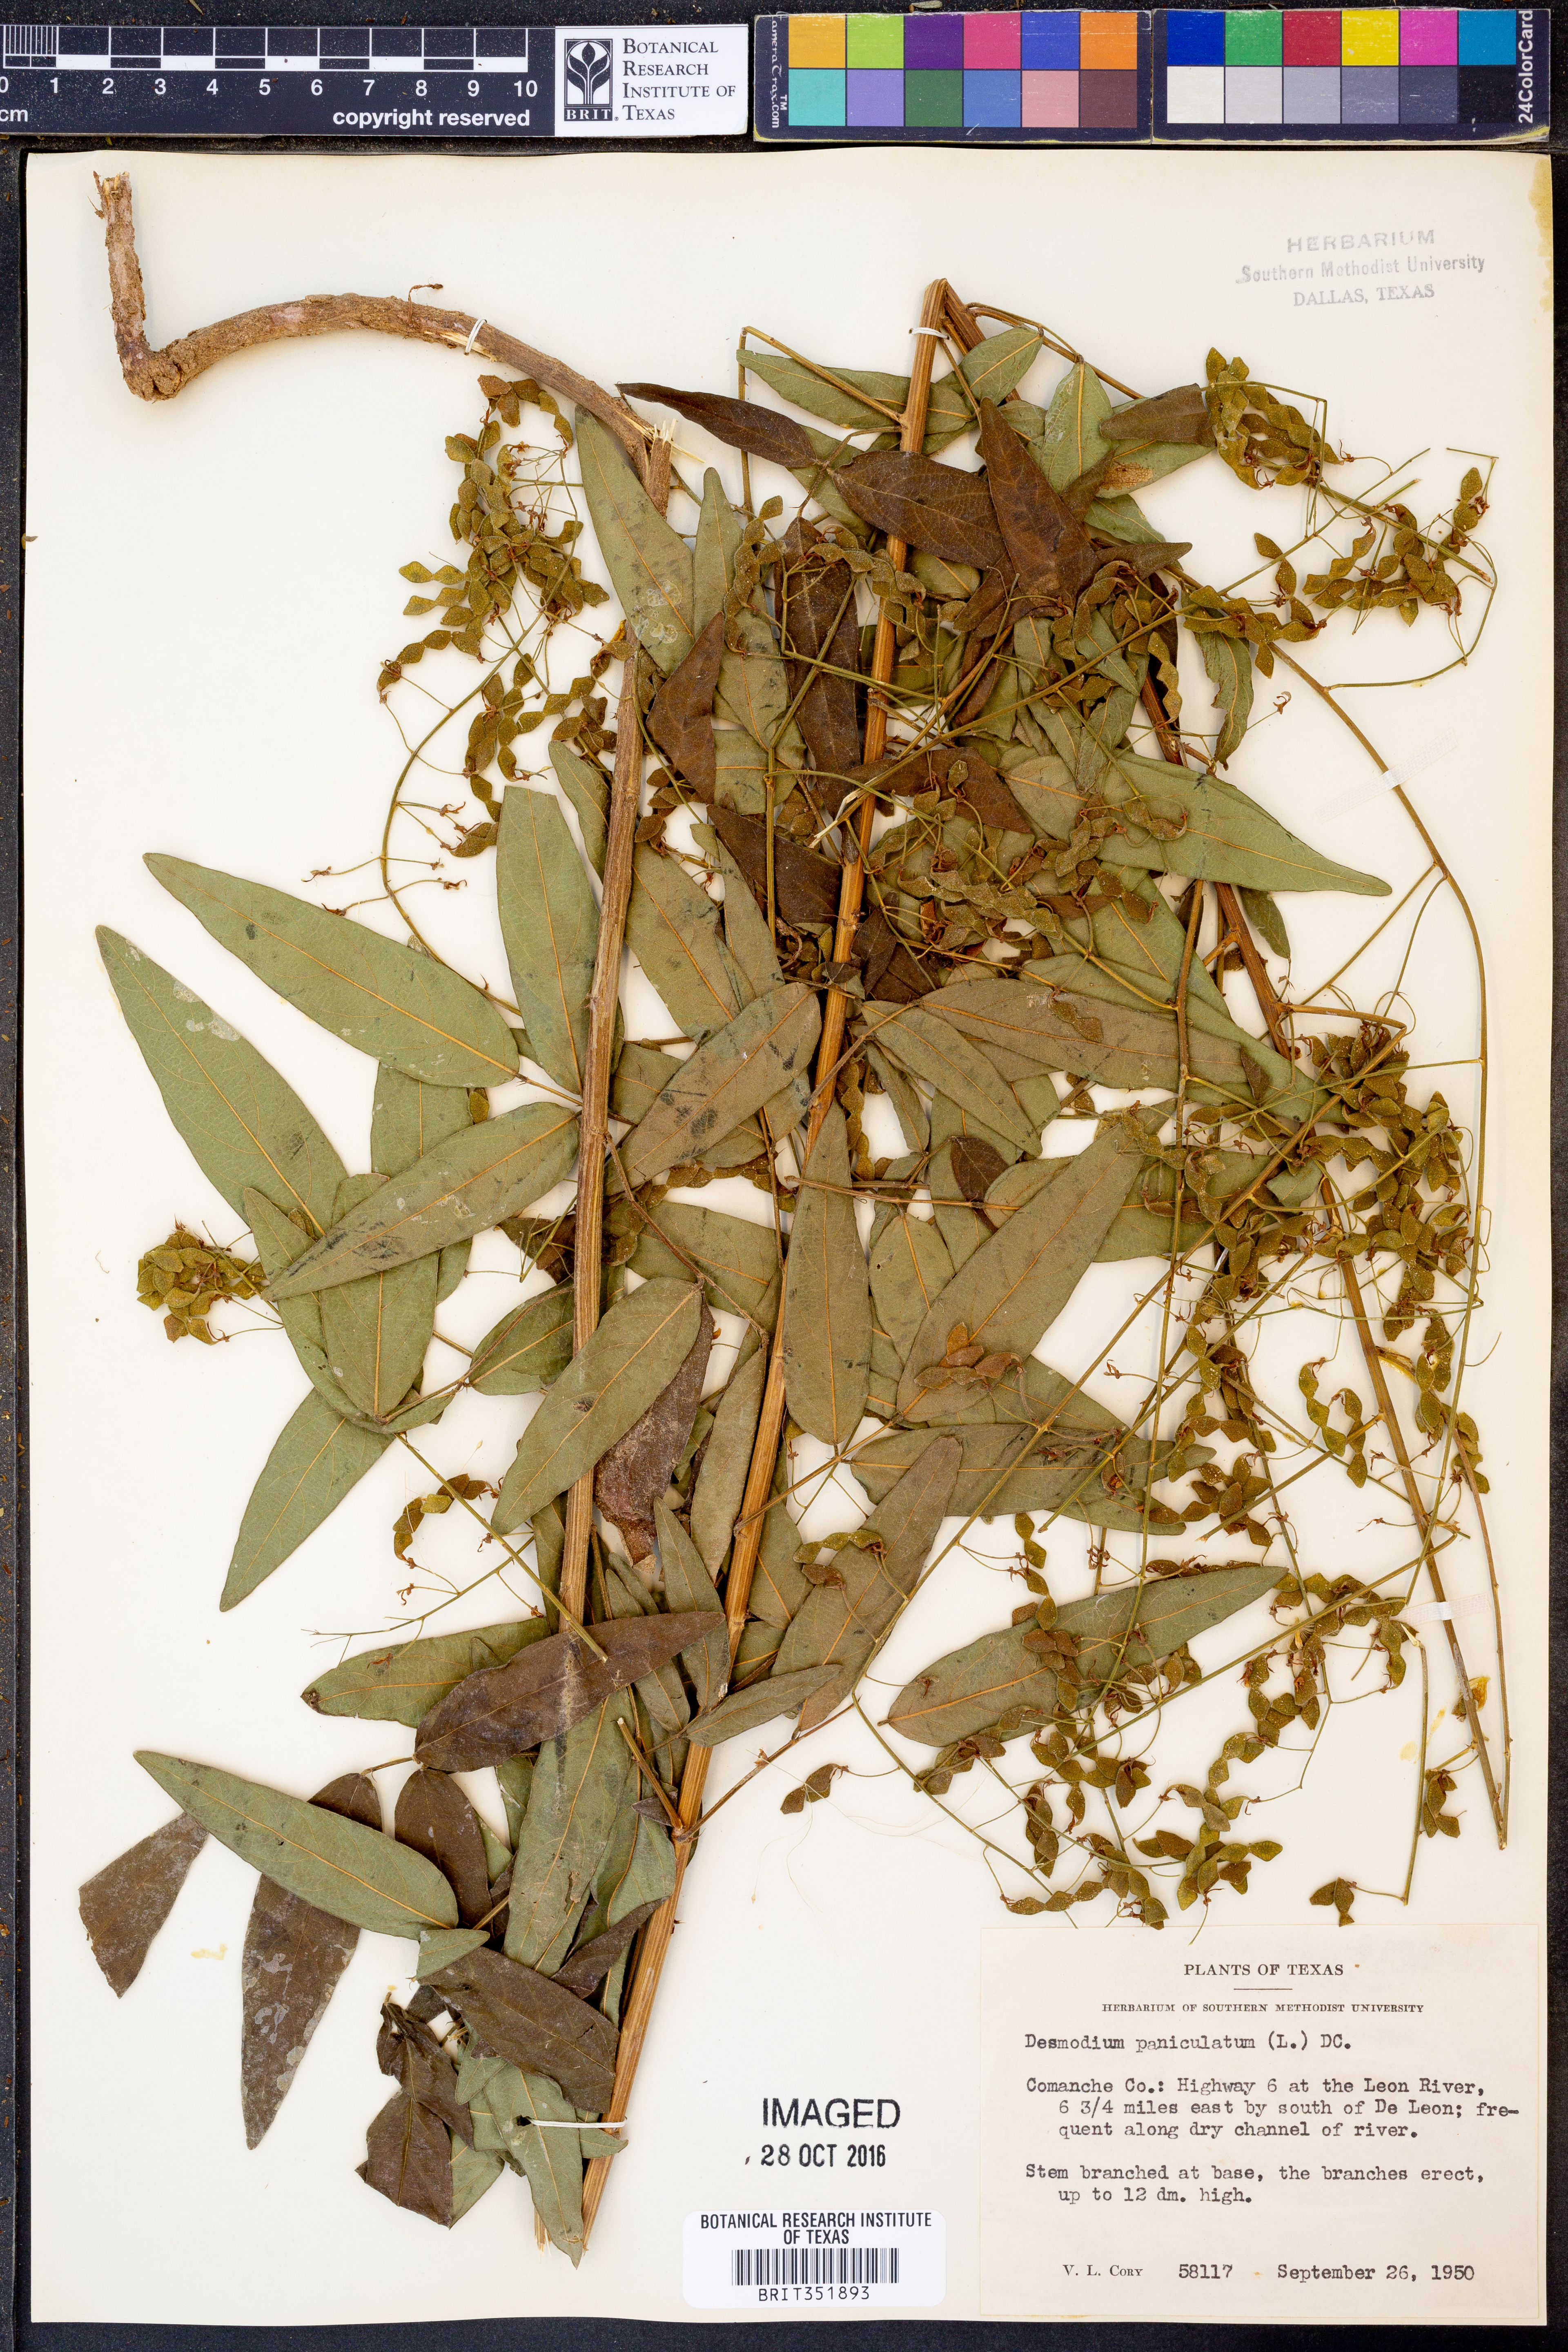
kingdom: Plantae
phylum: Tracheophyta
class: Magnoliopsida
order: Fabales
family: Fabaceae
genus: Desmodium
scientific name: Desmodium paniculatum
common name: Panicled tick-clover
